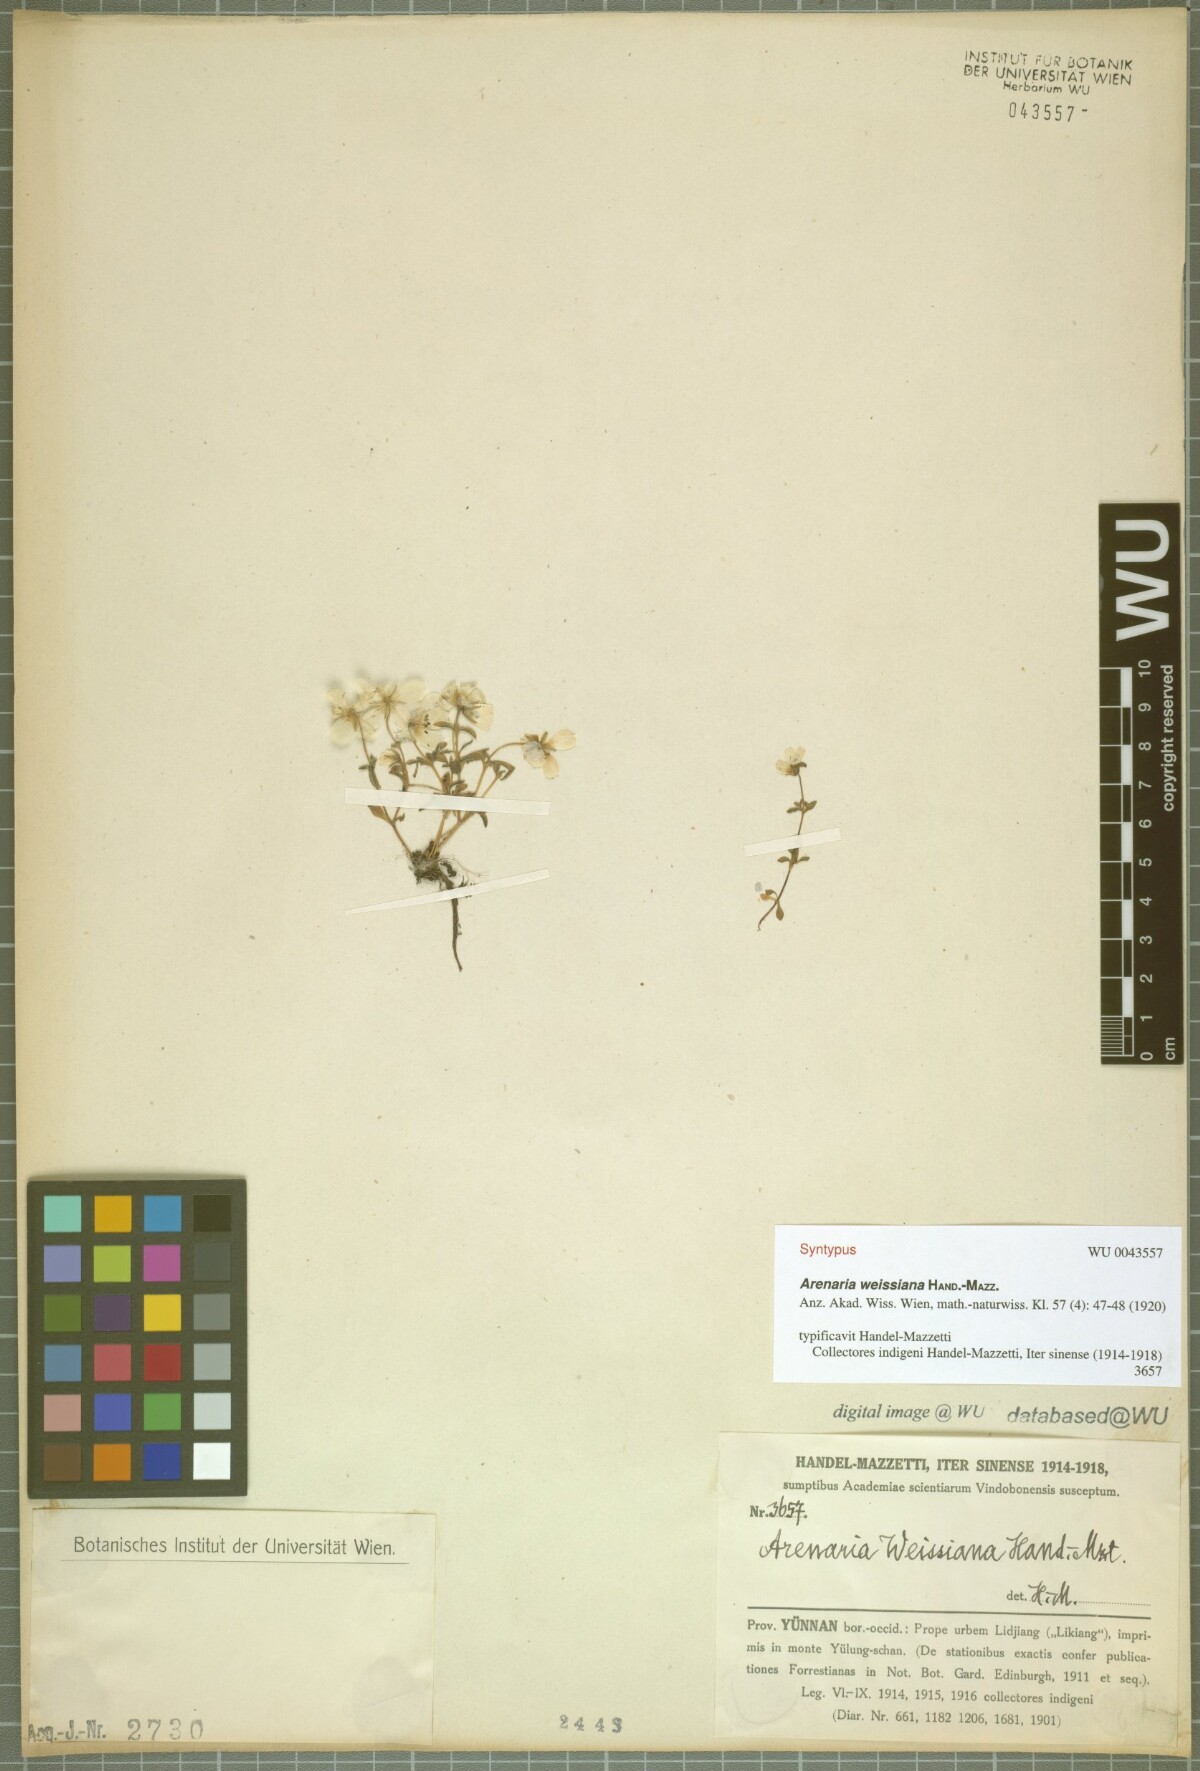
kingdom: Plantae
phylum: Tracheophyta
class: Magnoliopsida
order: Caryophyllales
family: Caryophyllaceae
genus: Odontostemma
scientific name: Odontostemma weissianum
